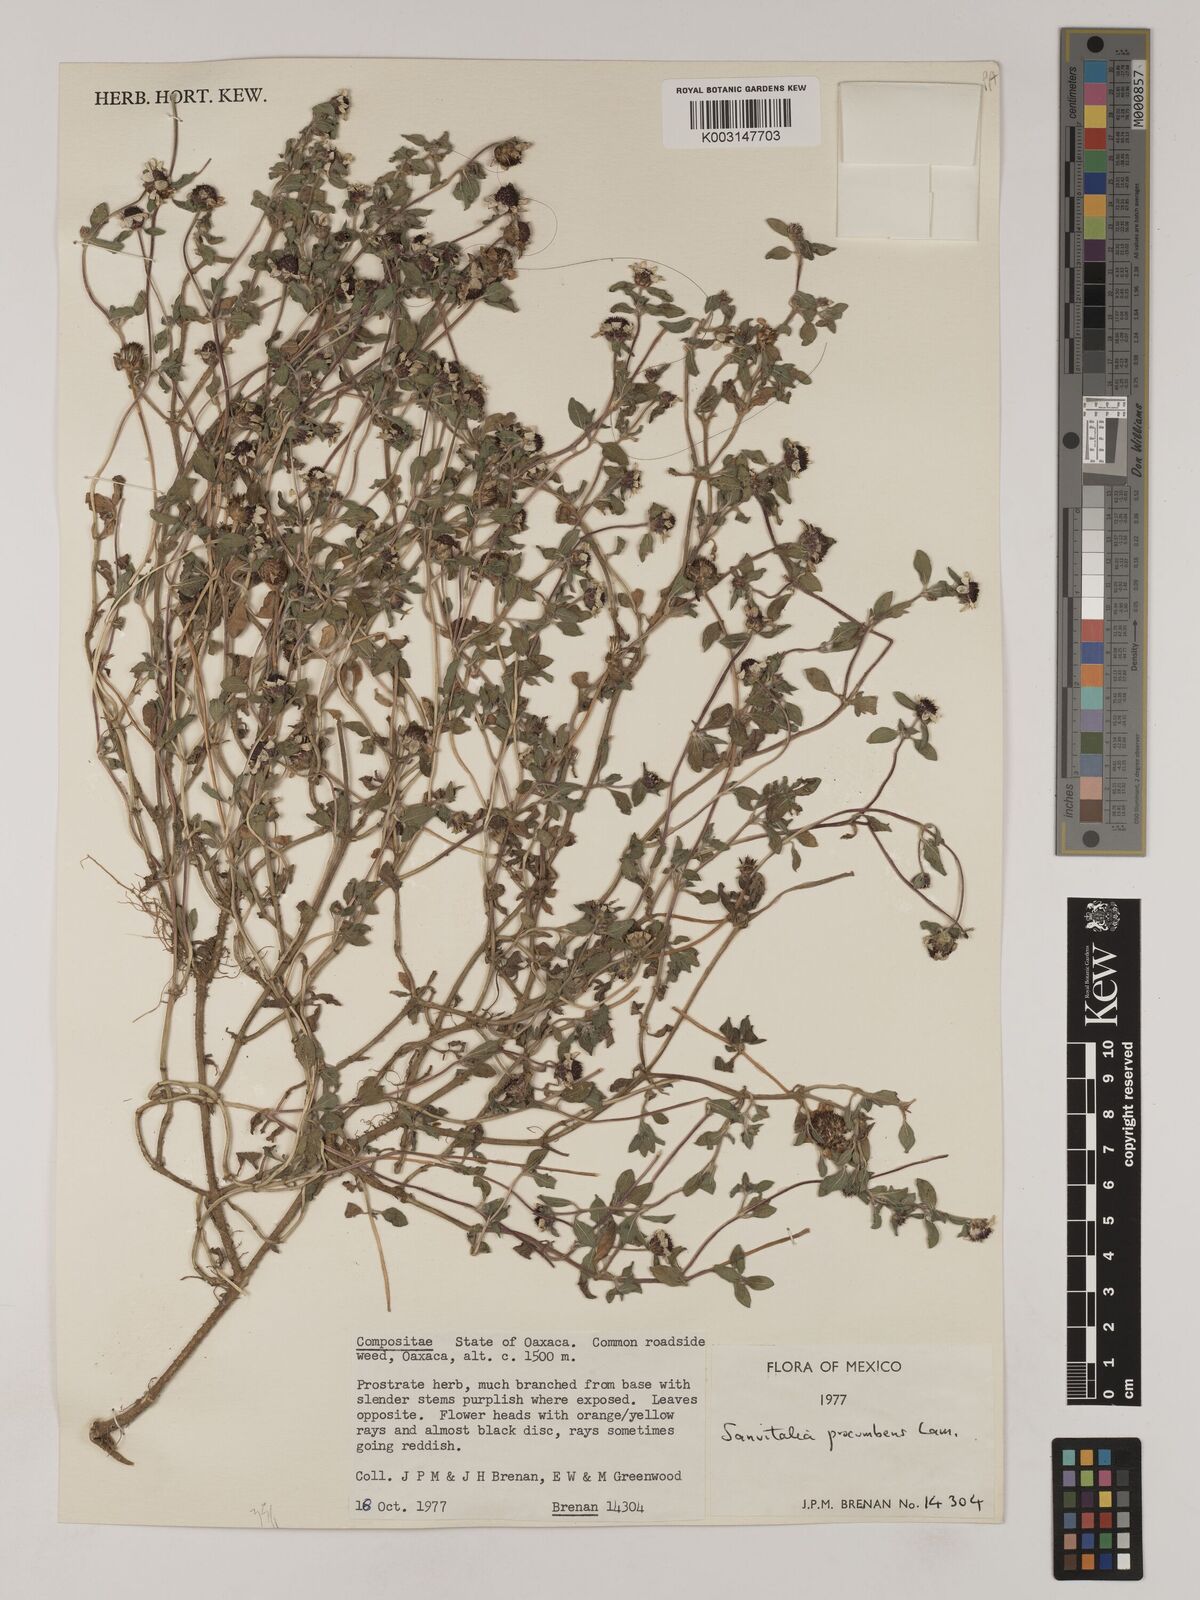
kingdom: Plantae
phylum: Tracheophyta
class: Magnoliopsida
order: Asterales
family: Asteraceae
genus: Sanvitalia
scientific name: Sanvitalia procumbens
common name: Mexican creeping zinnia
